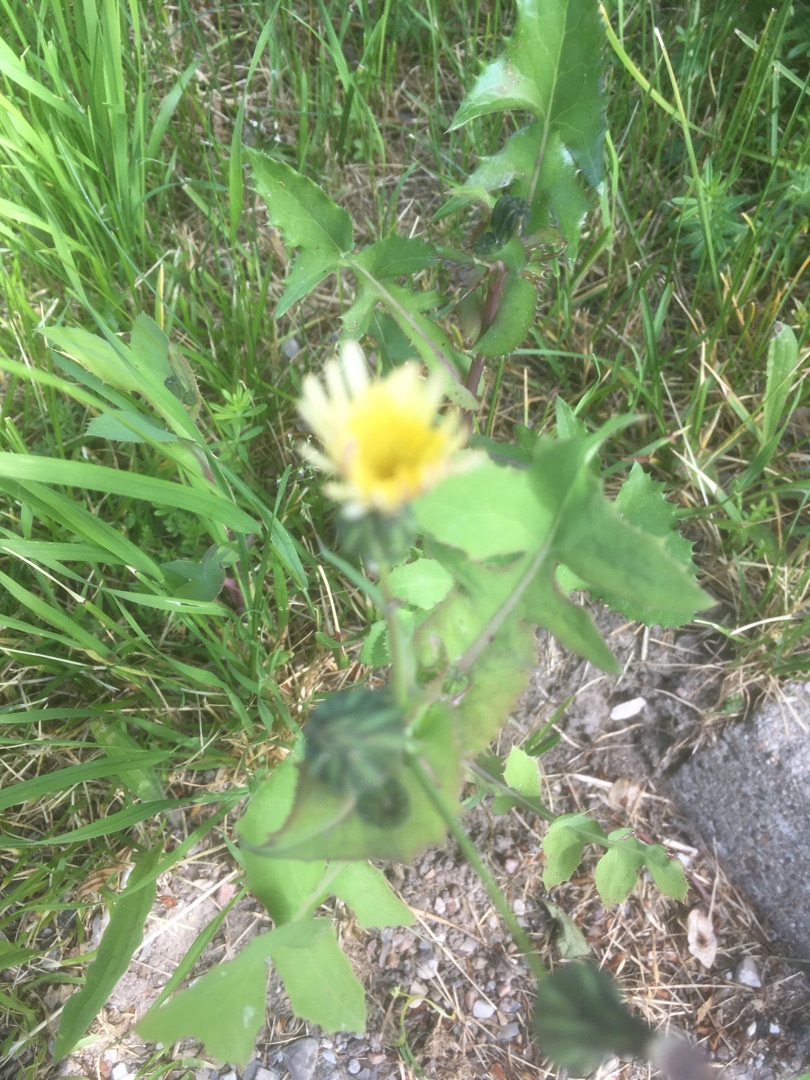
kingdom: Plantae
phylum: Tracheophyta
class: Magnoliopsida
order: Asterales
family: Asteraceae
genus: Sonchus
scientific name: Sonchus oleraceus
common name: Almindelig svinemælk
